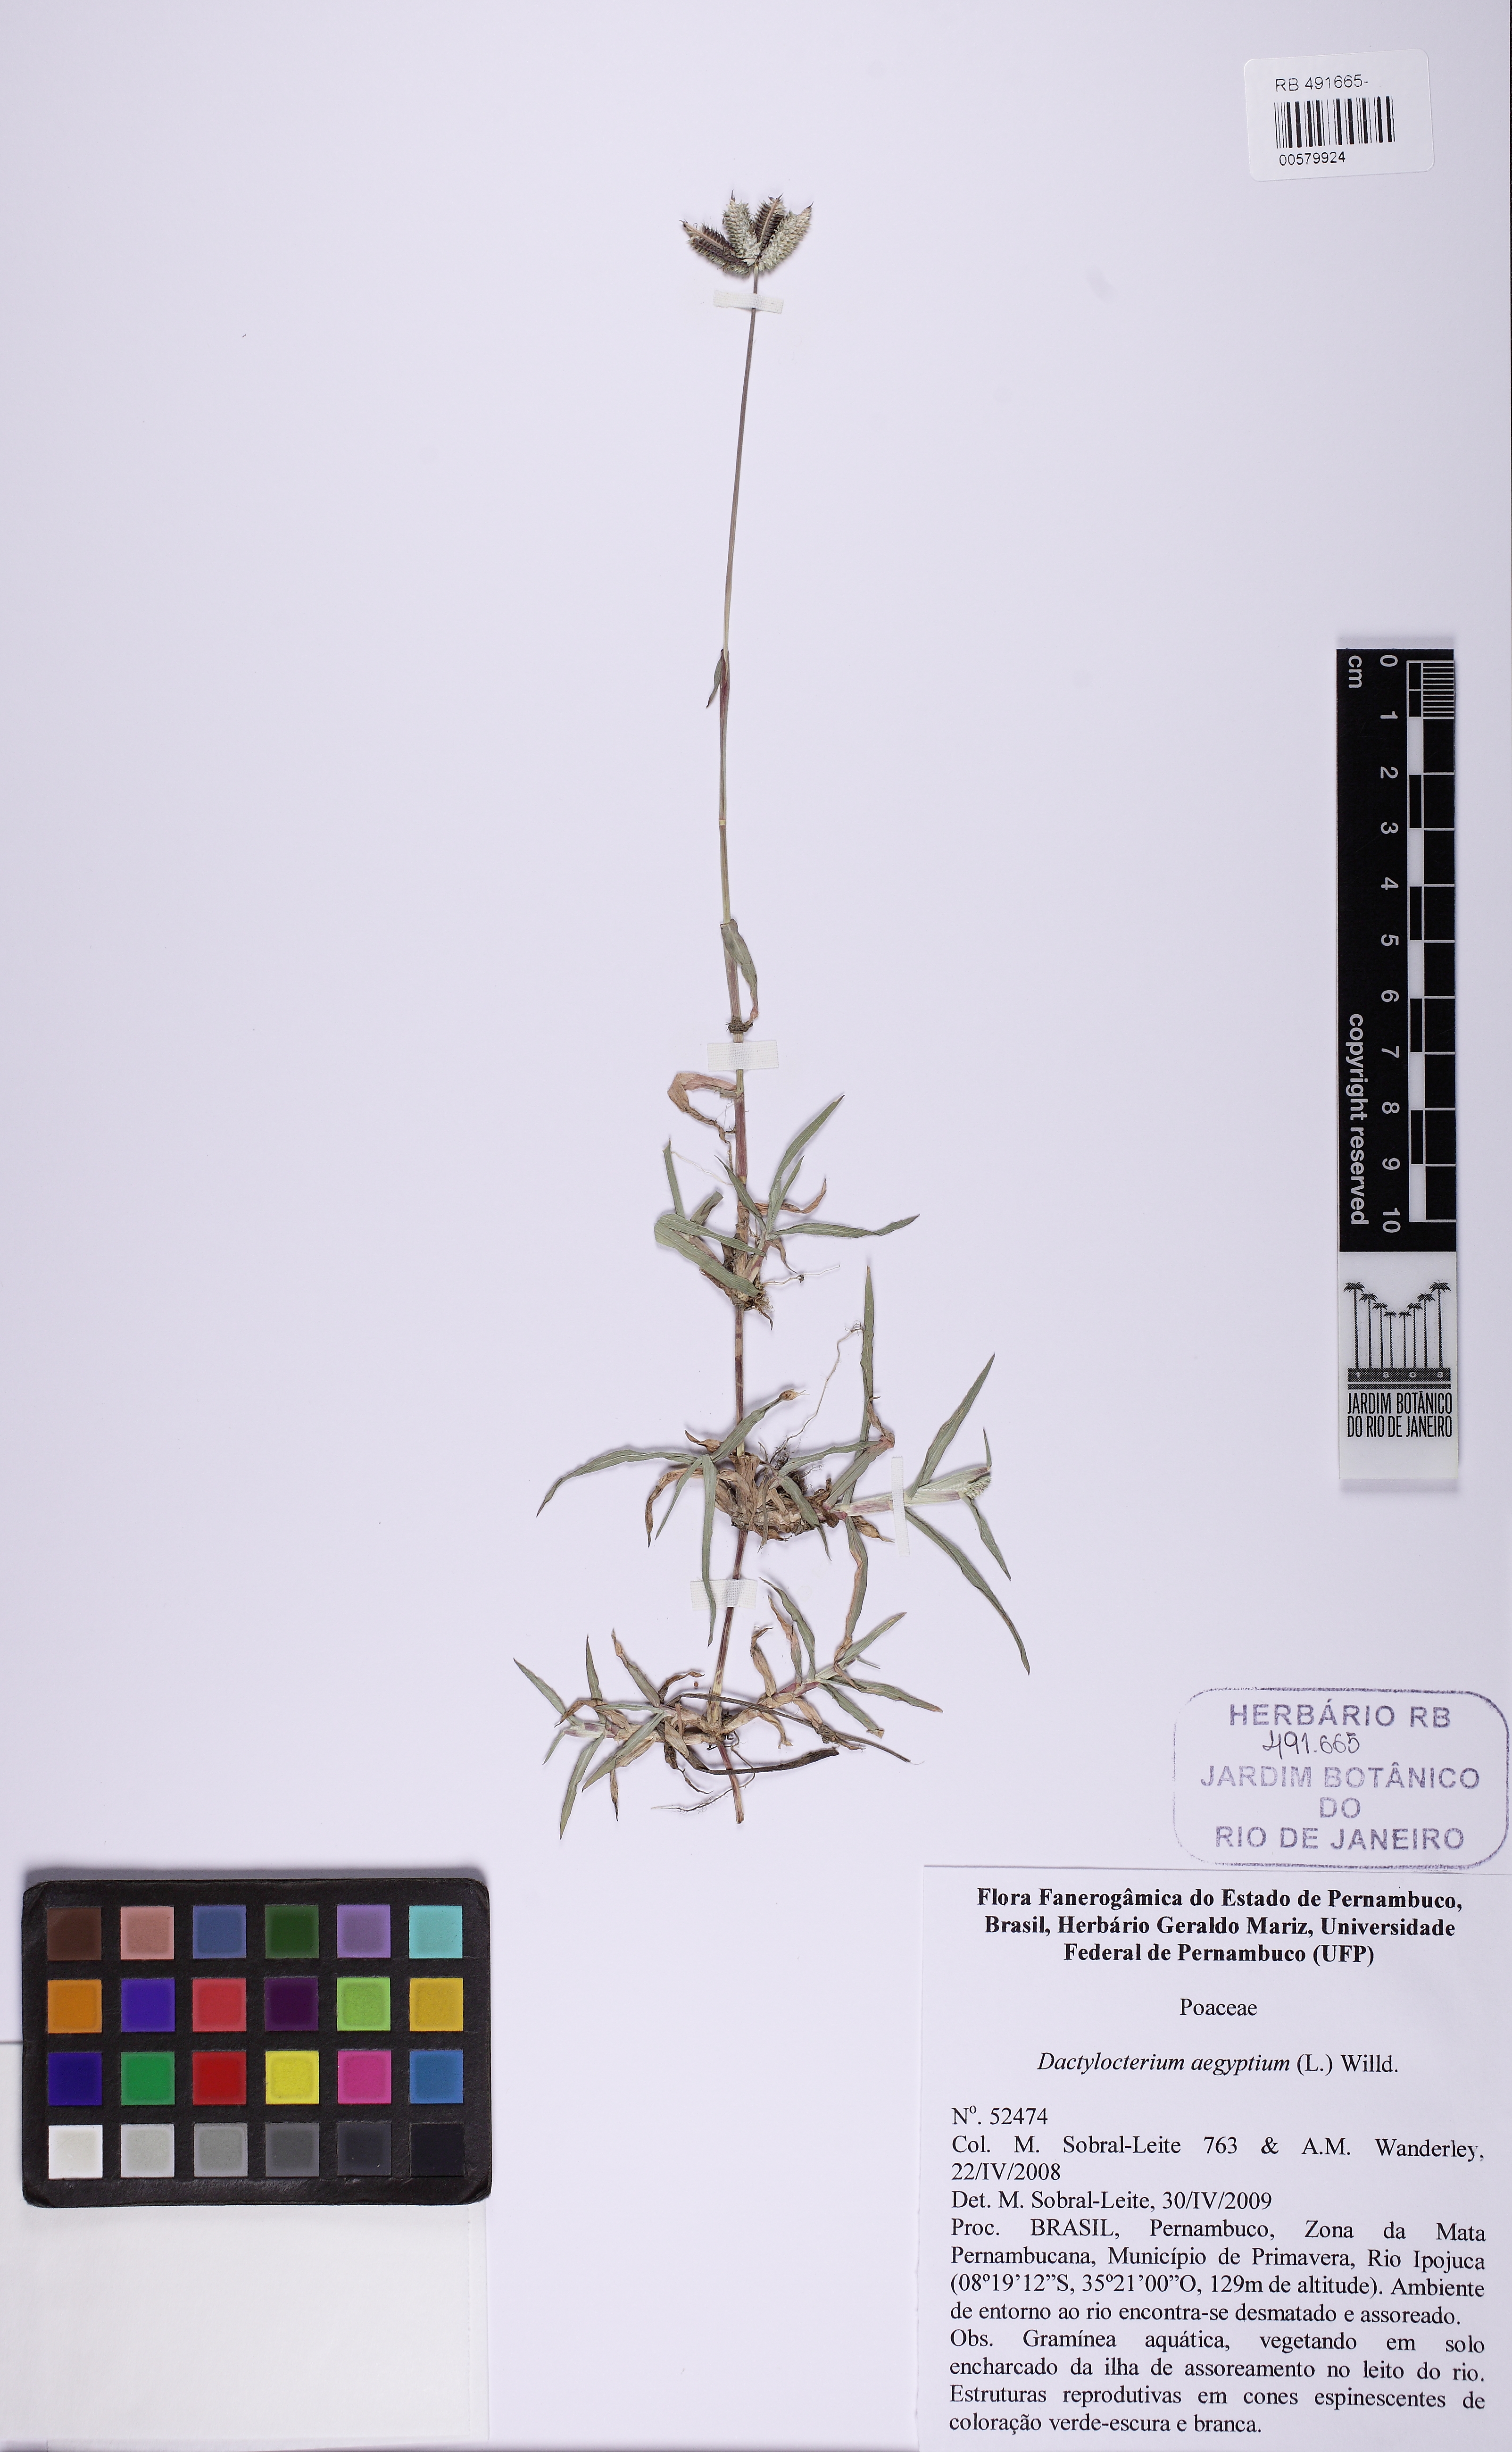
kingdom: Plantae
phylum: Tracheophyta
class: Liliopsida
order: Poales
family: Poaceae
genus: Dactyloctenium
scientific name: Dactyloctenium aegyptium
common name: Egyptian grass
